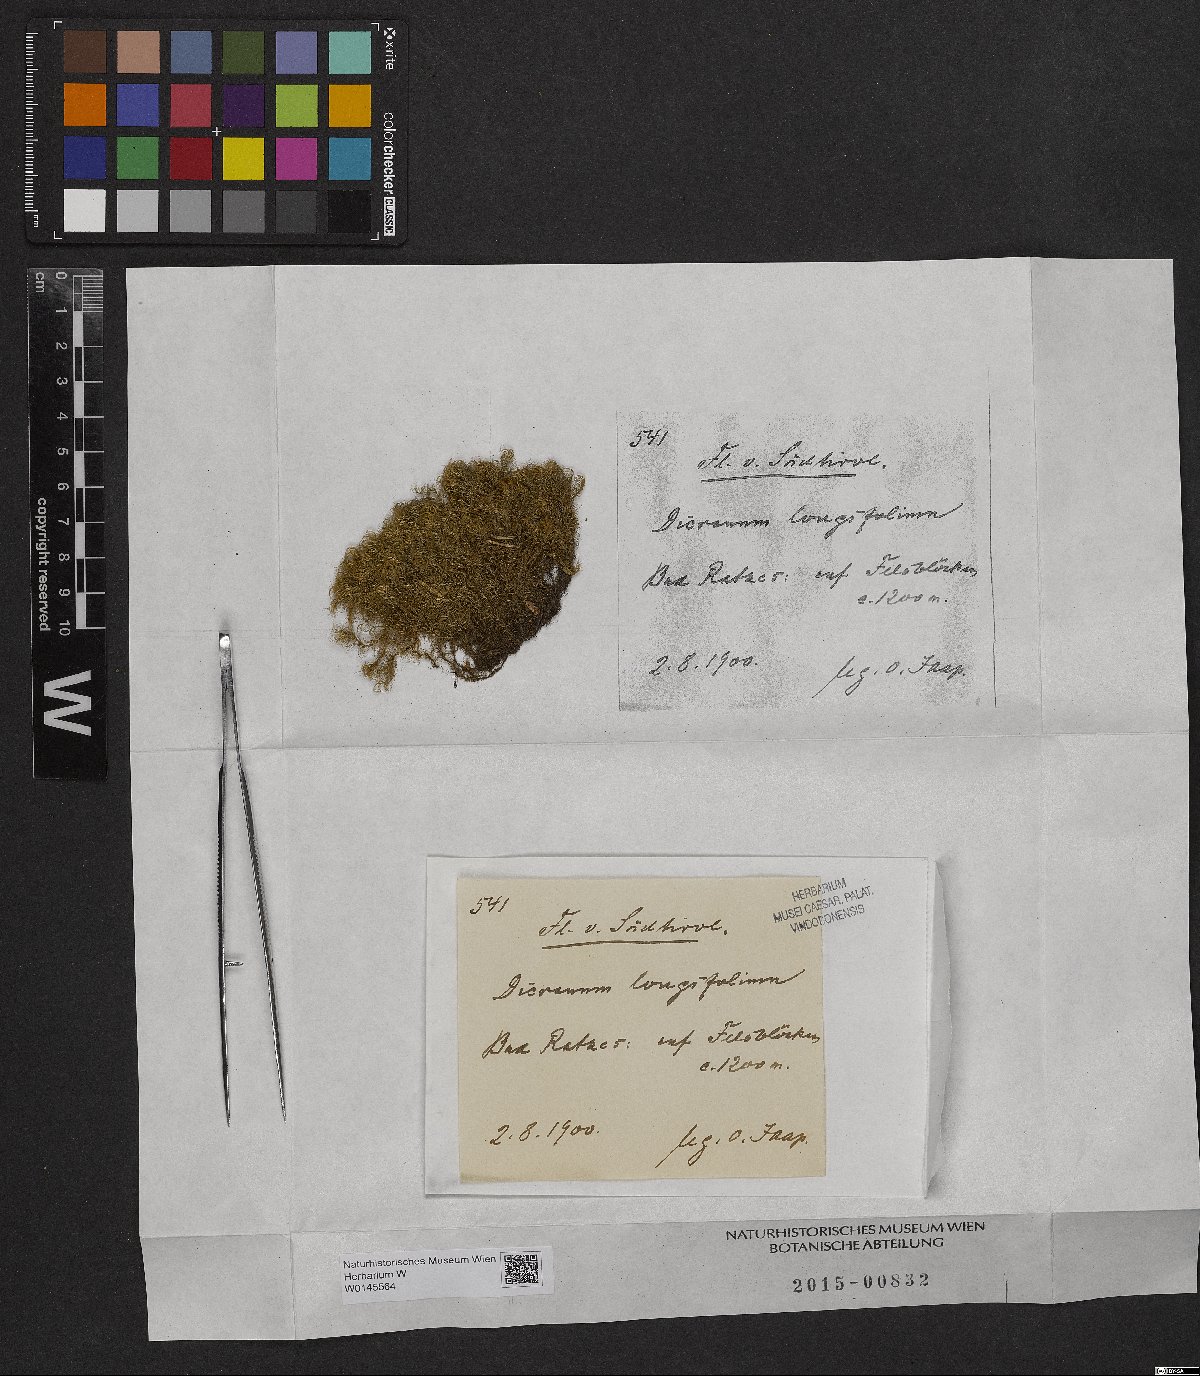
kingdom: Plantae
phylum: Bryophyta
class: Bryopsida
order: Dicranales
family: Dicranaceae
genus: Paraleucobryum
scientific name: Paraleucobryum longifolium
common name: Long-leaved fork moss
